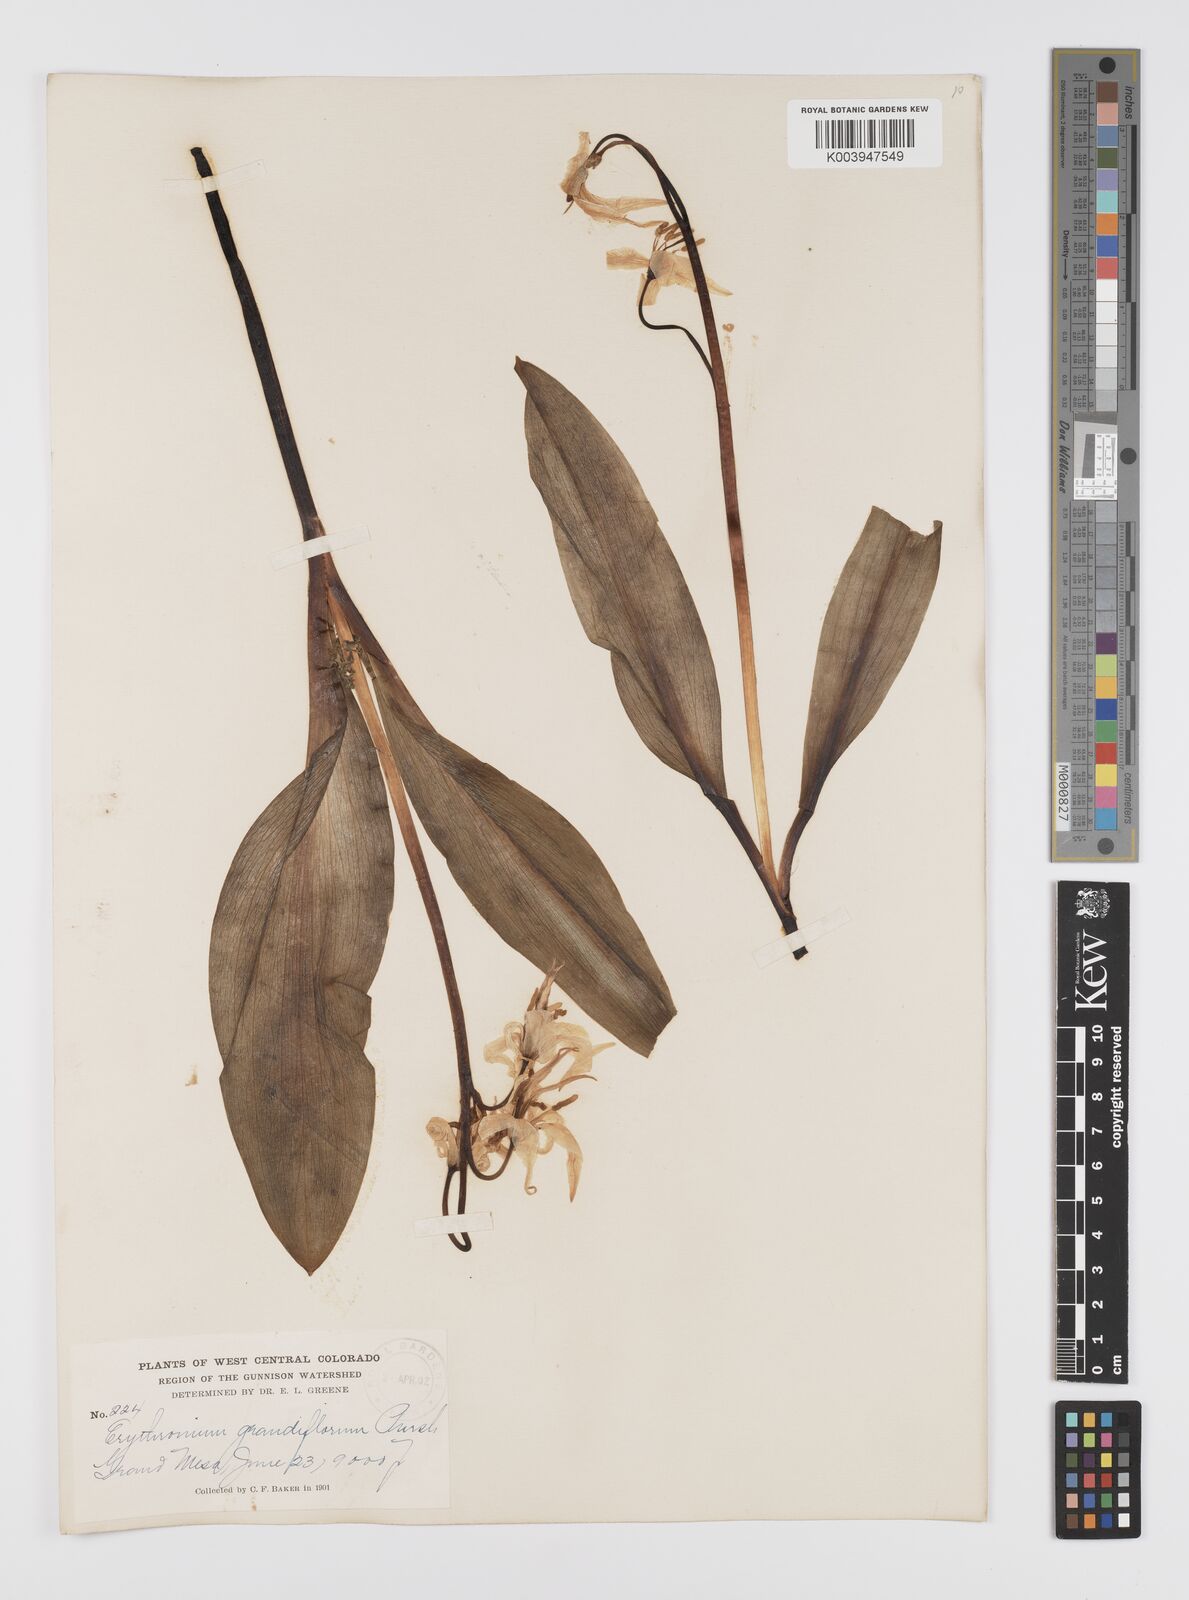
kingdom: Plantae
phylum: Tracheophyta
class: Liliopsida
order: Liliales
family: Liliaceae
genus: Erythronium
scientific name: Erythronium grandiflorum
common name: Avalanche-lily
